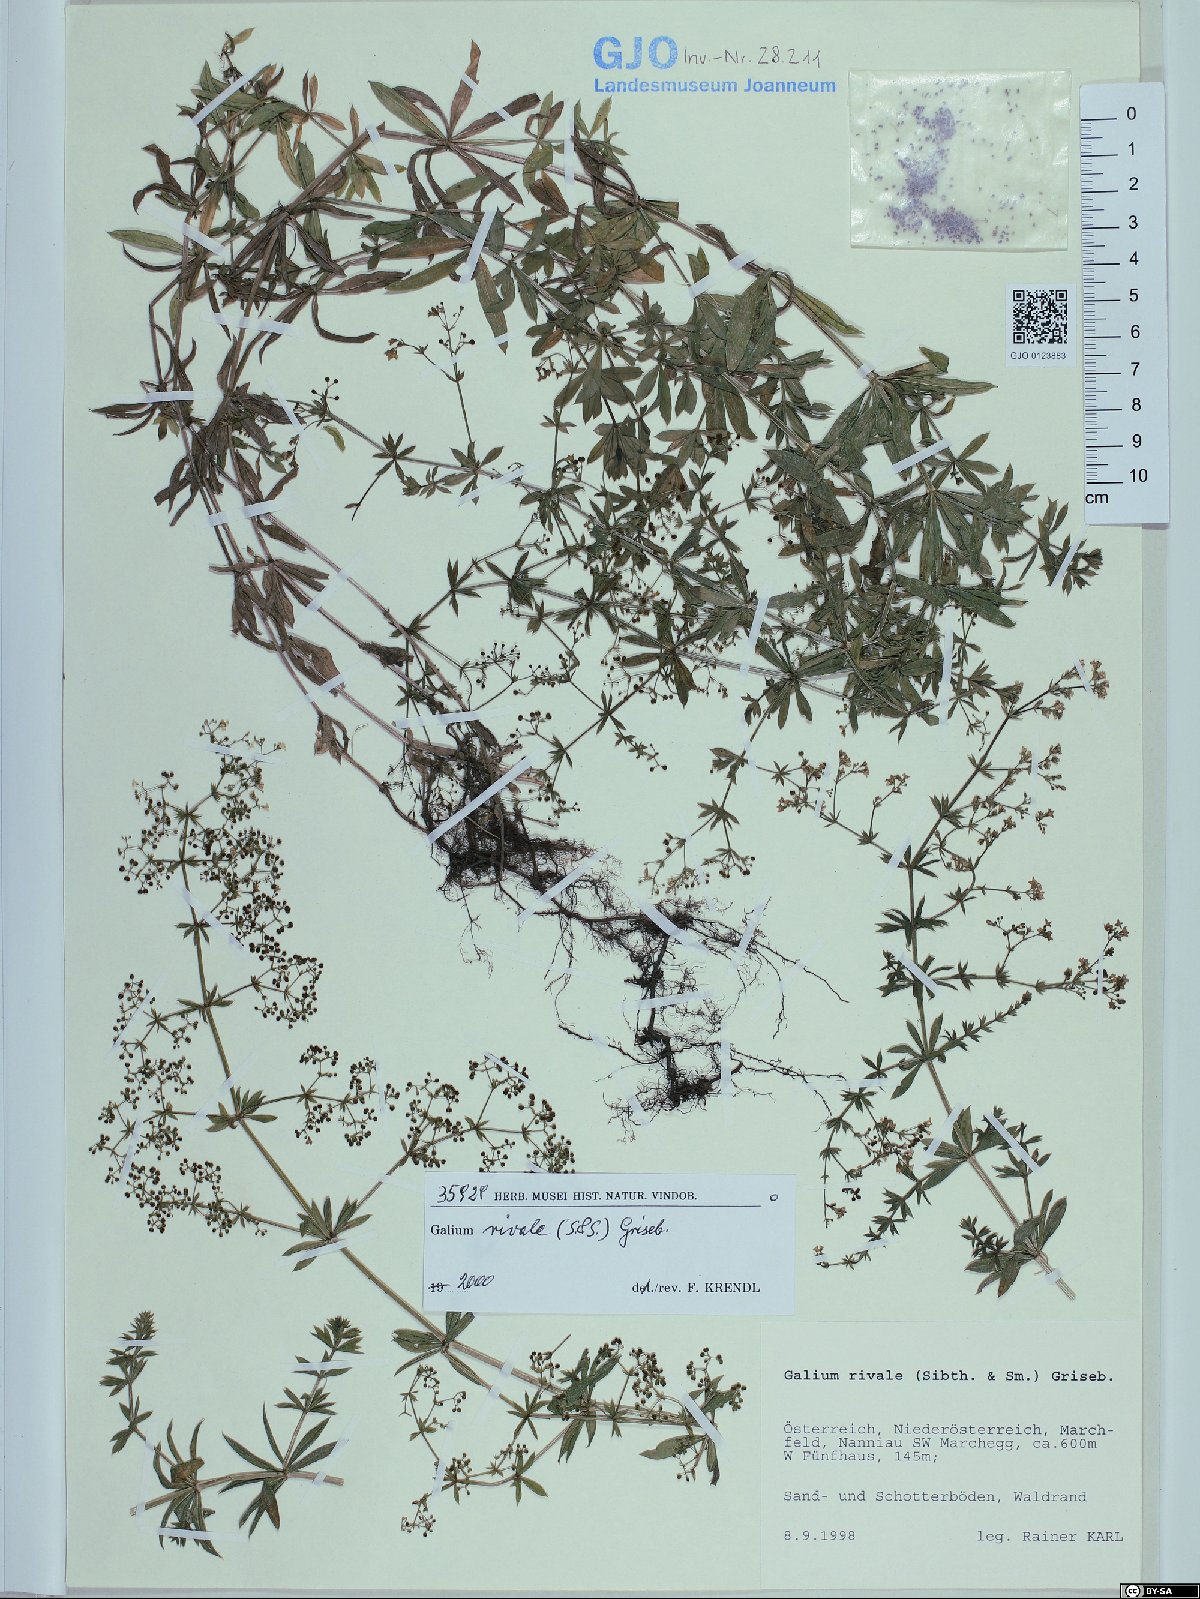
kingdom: Plantae
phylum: Tracheophyta
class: Magnoliopsida
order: Gentianales
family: Rubiaceae
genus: Galium
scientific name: Galium rivale
